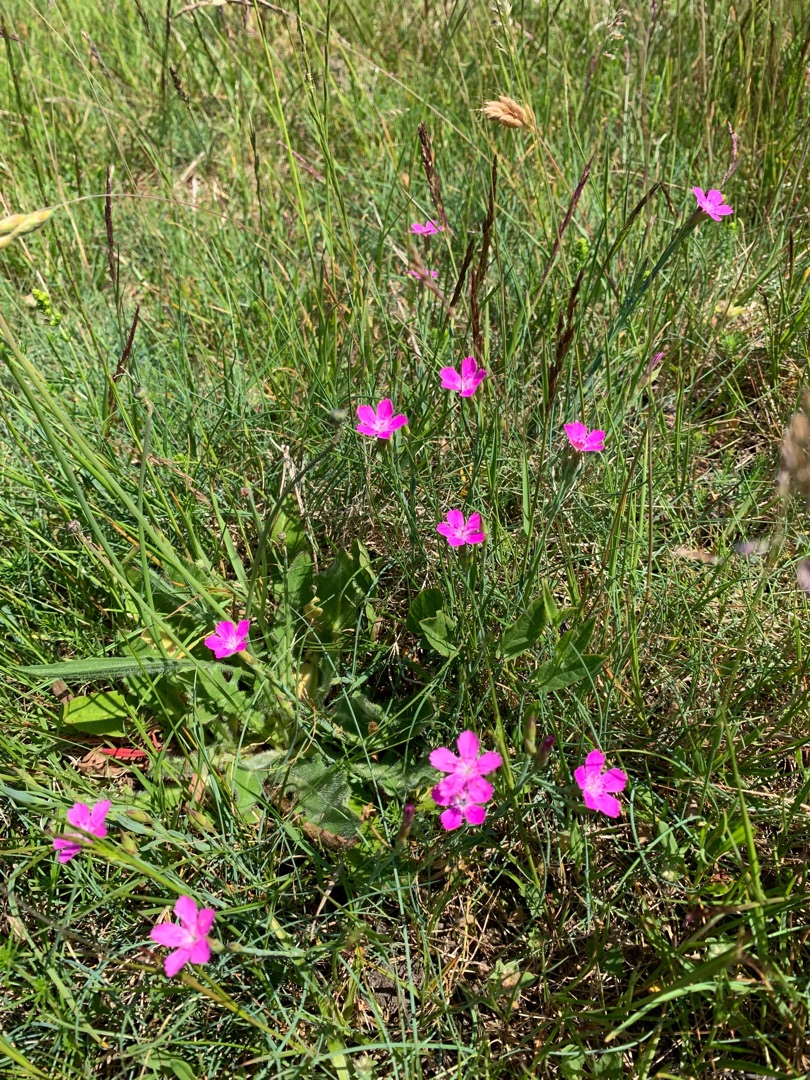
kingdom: Plantae
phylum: Tracheophyta
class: Magnoliopsida
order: Caryophyllales
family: Caryophyllaceae
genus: Dianthus
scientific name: Dianthus deltoides
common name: Bakke-nellike
